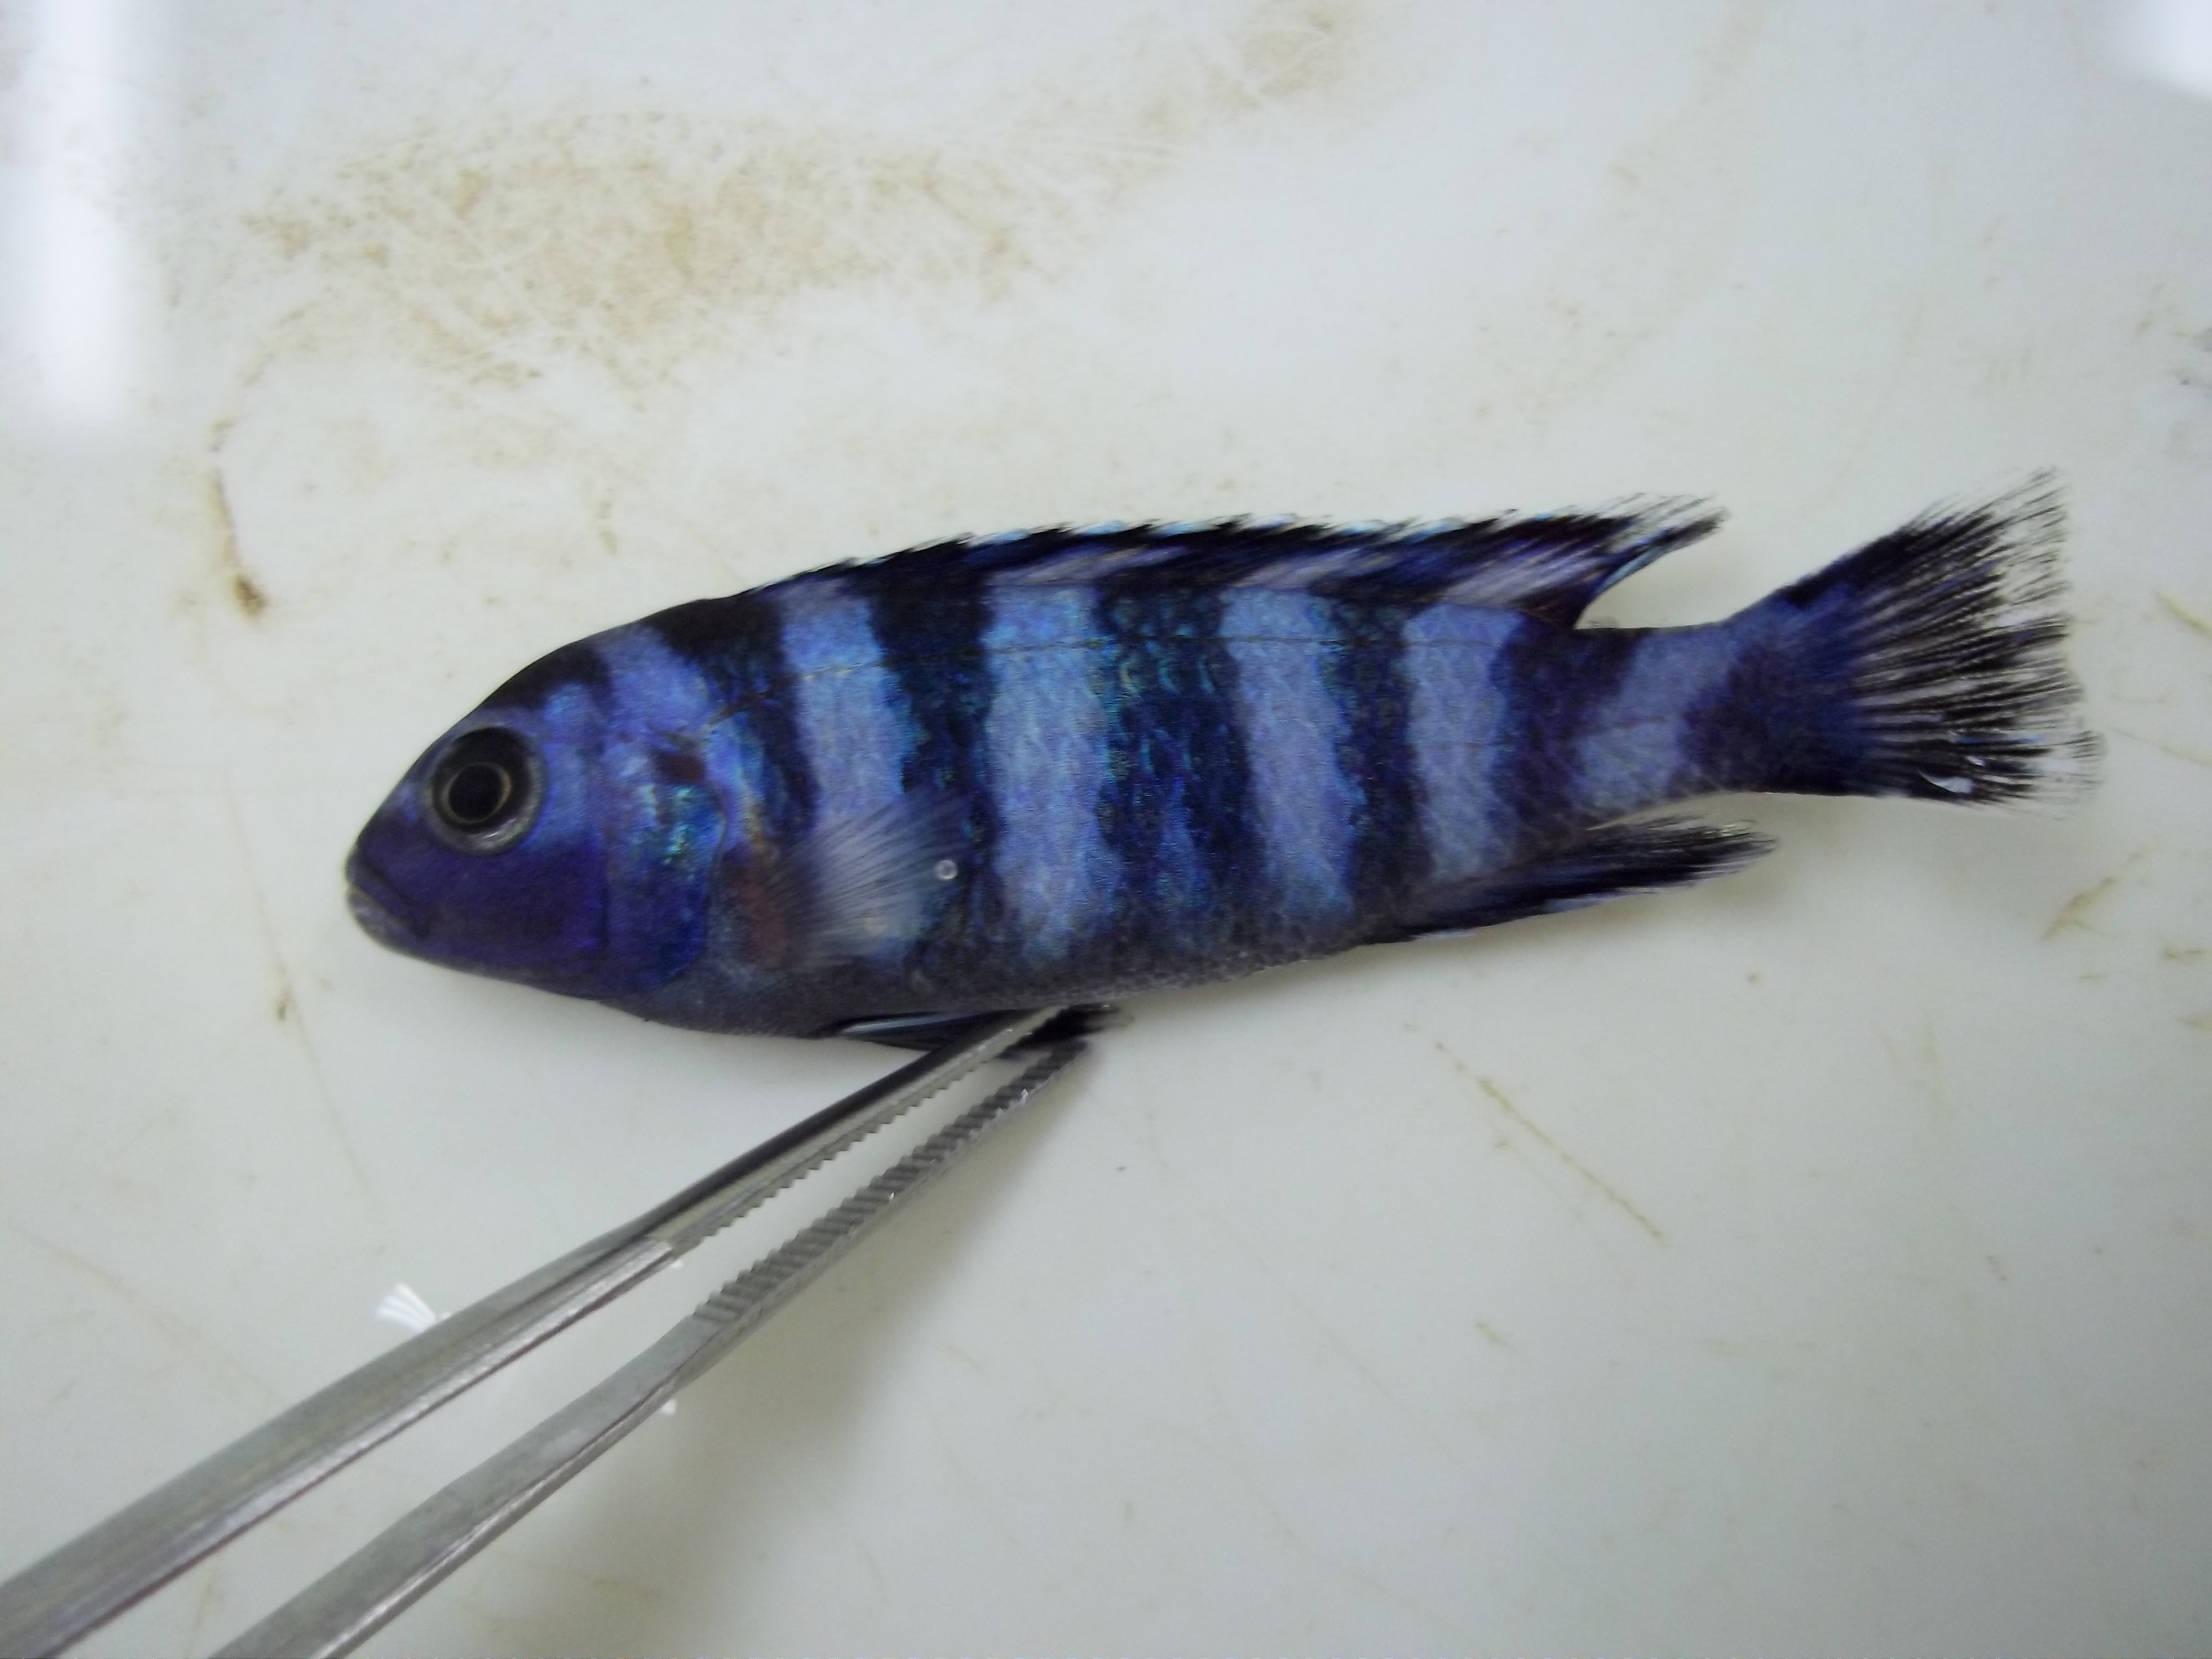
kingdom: Animalia
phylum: Chordata
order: Perciformes
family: Cichlidae
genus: Pseudotropheus
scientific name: Pseudotropheus demasoni
